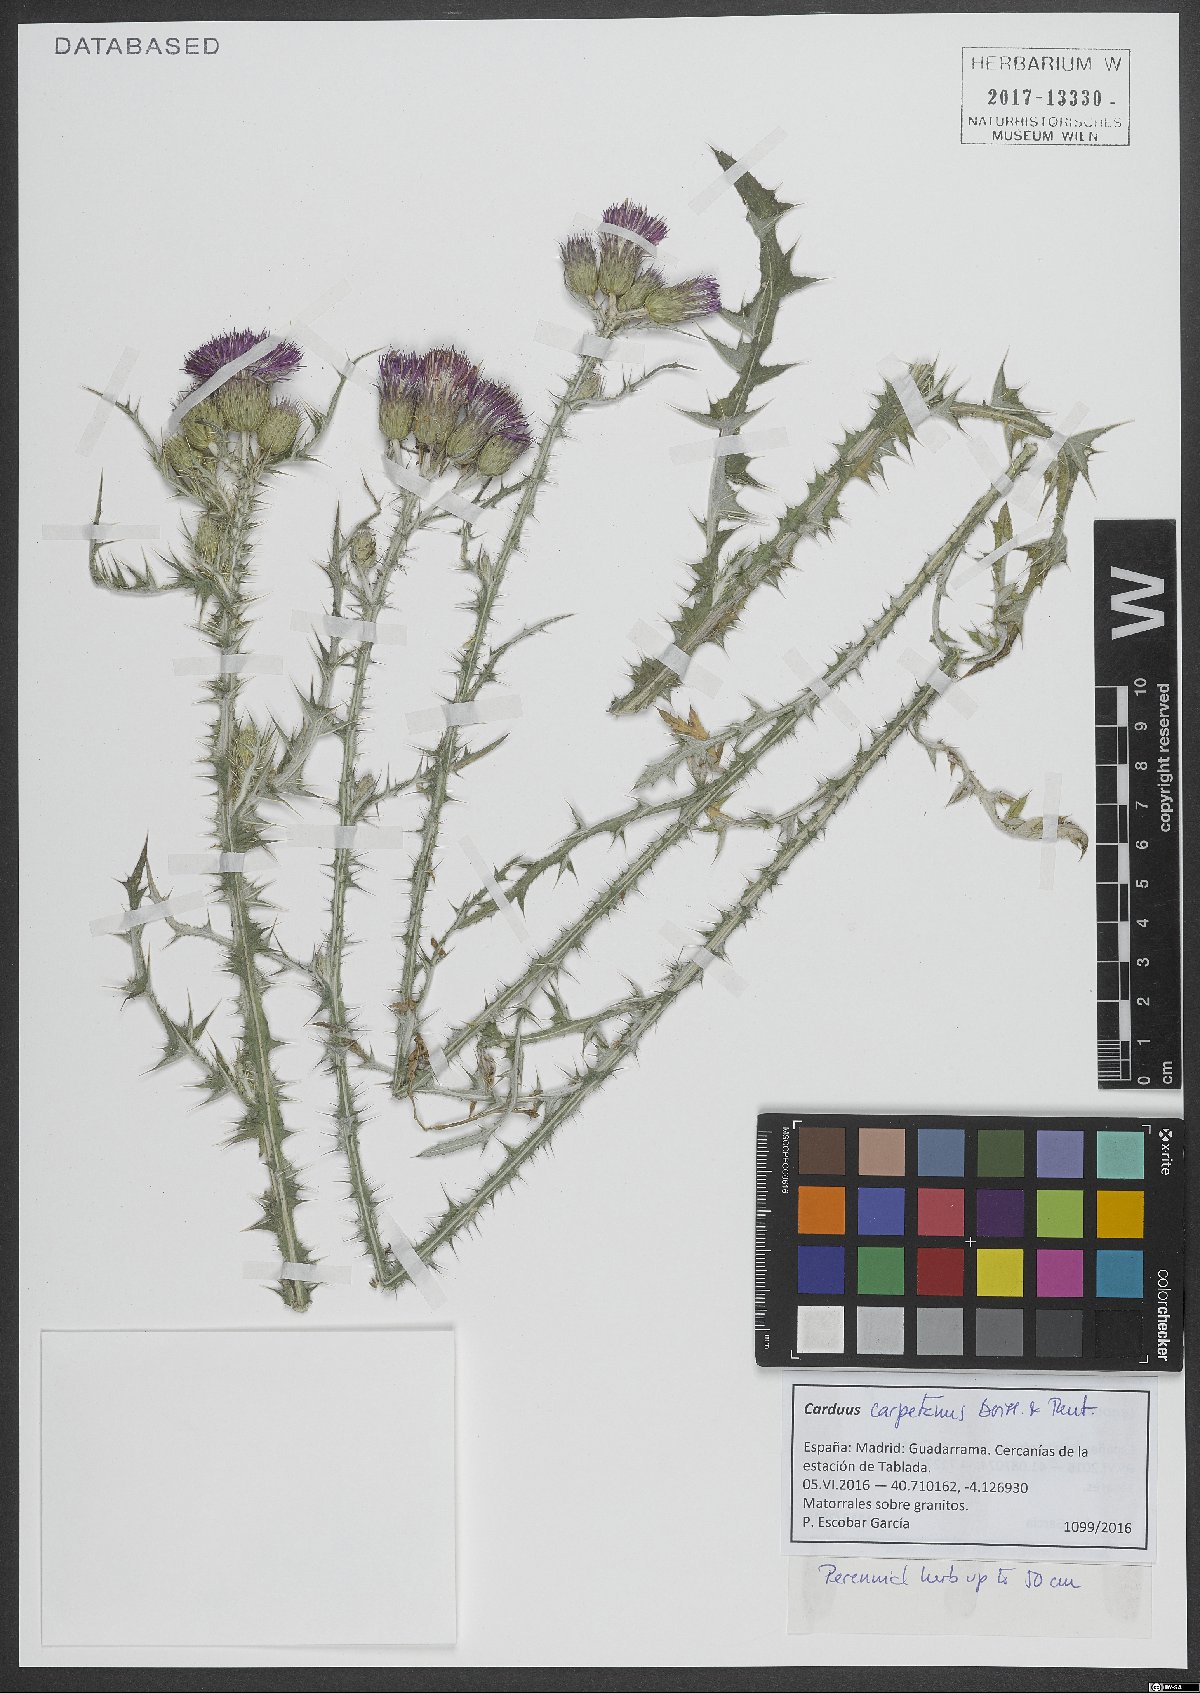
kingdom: Plantae
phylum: Tracheophyta
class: Magnoliopsida
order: Asterales
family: Asteraceae
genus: Carduus
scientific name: Carduus carpetanus
